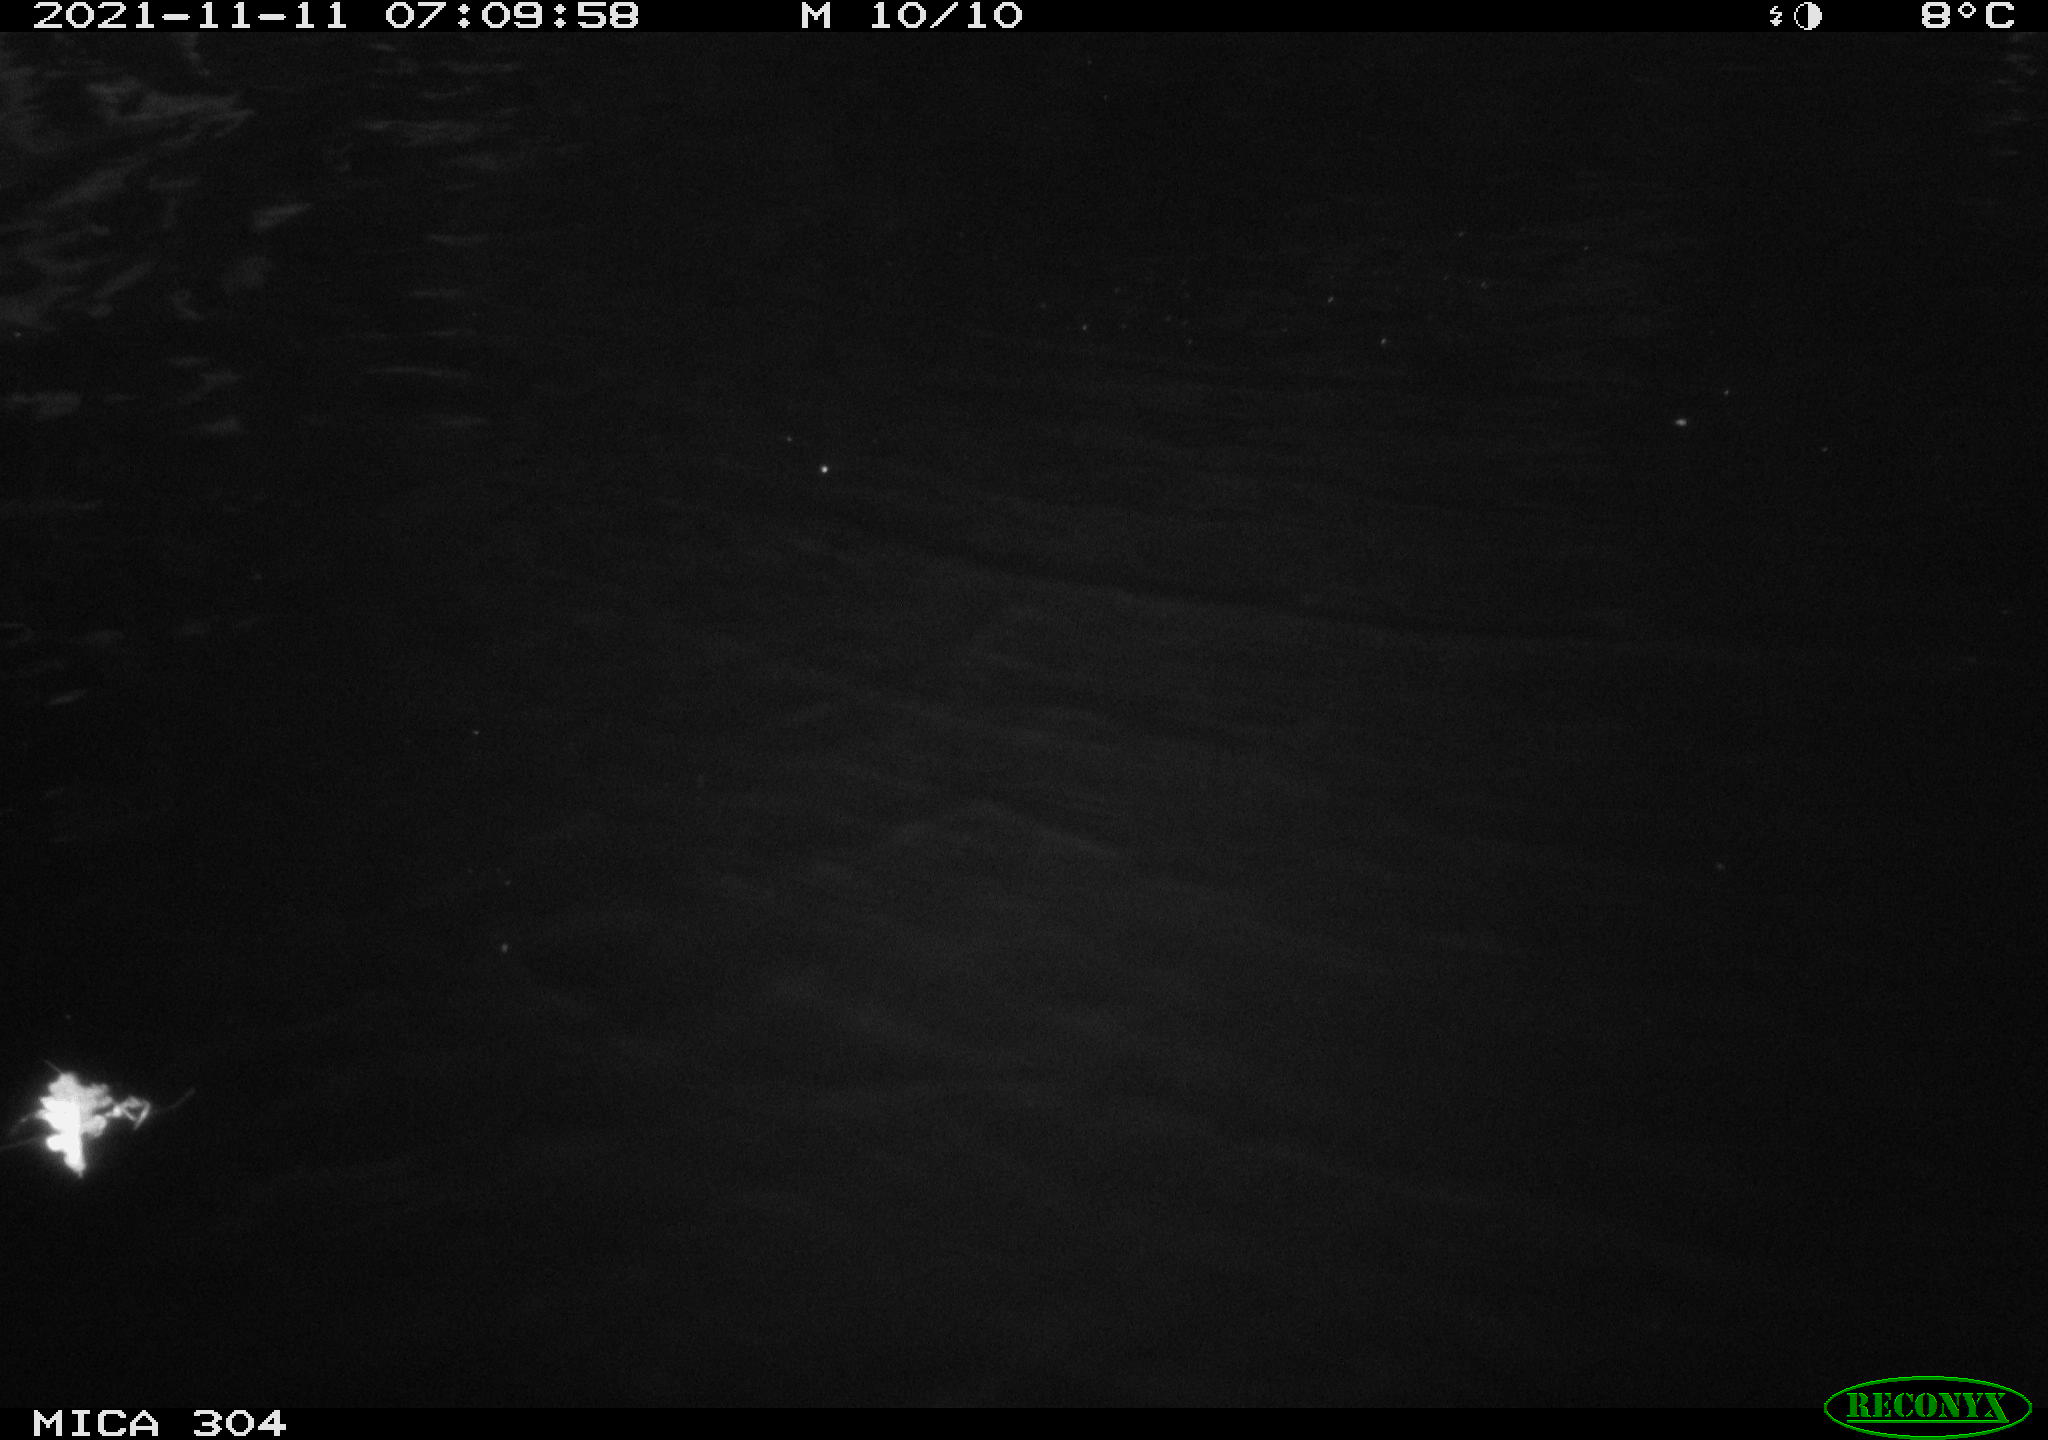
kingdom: Animalia
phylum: Chordata
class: Aves
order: Gruiformes
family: Rallidae
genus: Fulica
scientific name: Fulica atra
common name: Eurasian coot
